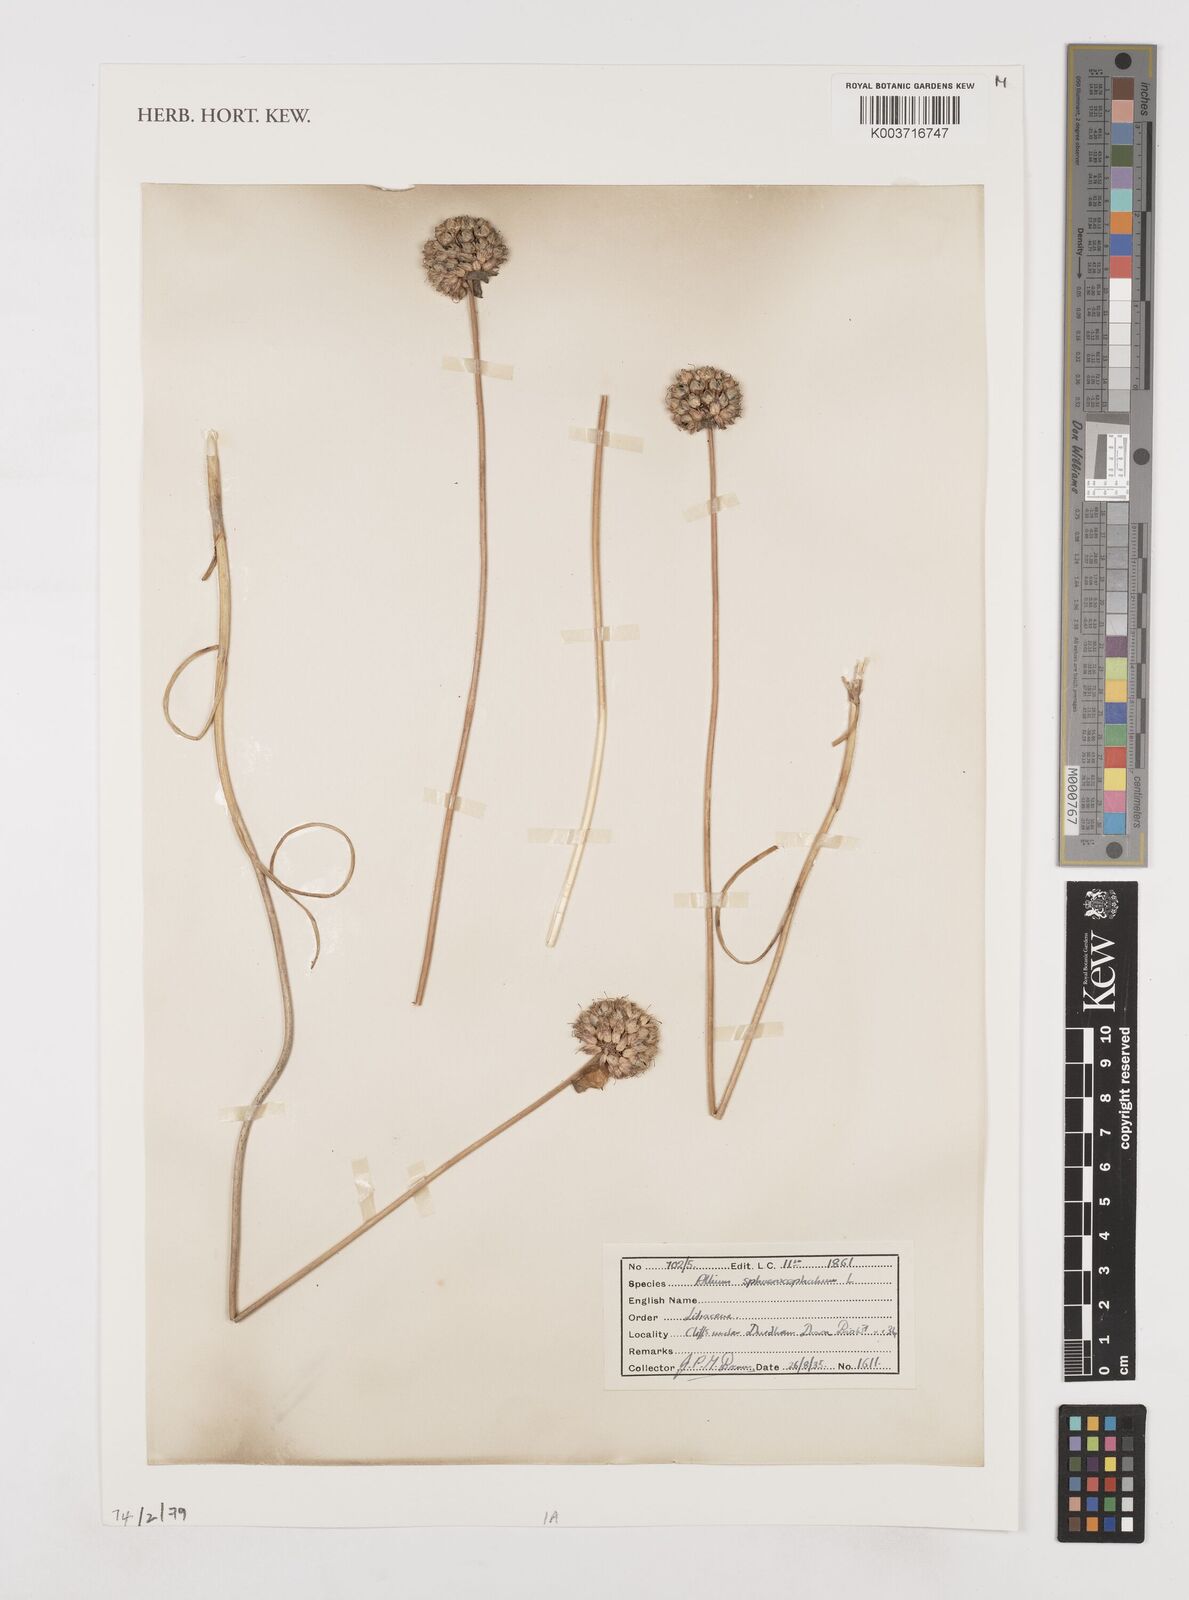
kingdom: Plantae
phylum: Tracheophyta
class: Liliopsida
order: Asparagales
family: Amaryllidaceae
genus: Allium
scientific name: Allium sphaerocephalon
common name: Round-headed leek
